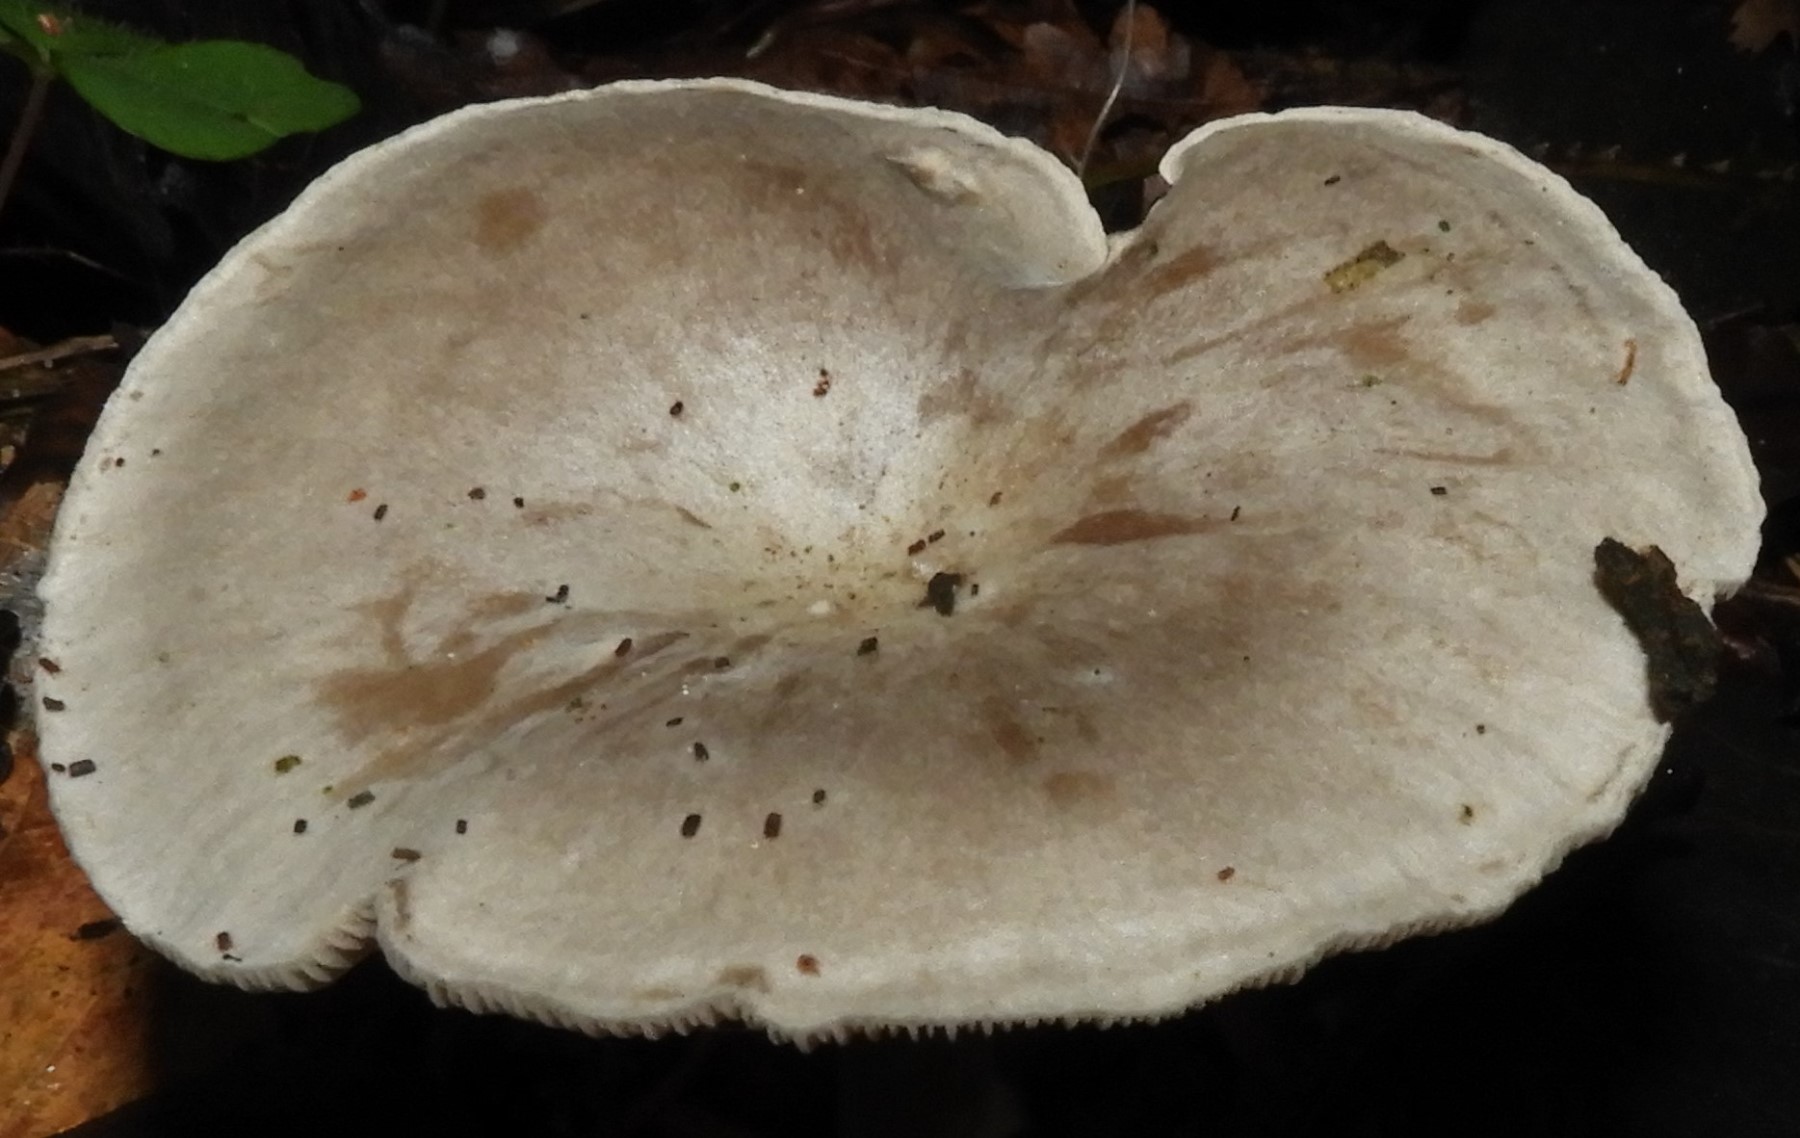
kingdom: Fungi
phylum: Basidiomycota
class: Agaricomycetes
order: Agaricales
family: Tricholomataceae
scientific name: Tricholomataceae
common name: ridderhatfamilien
